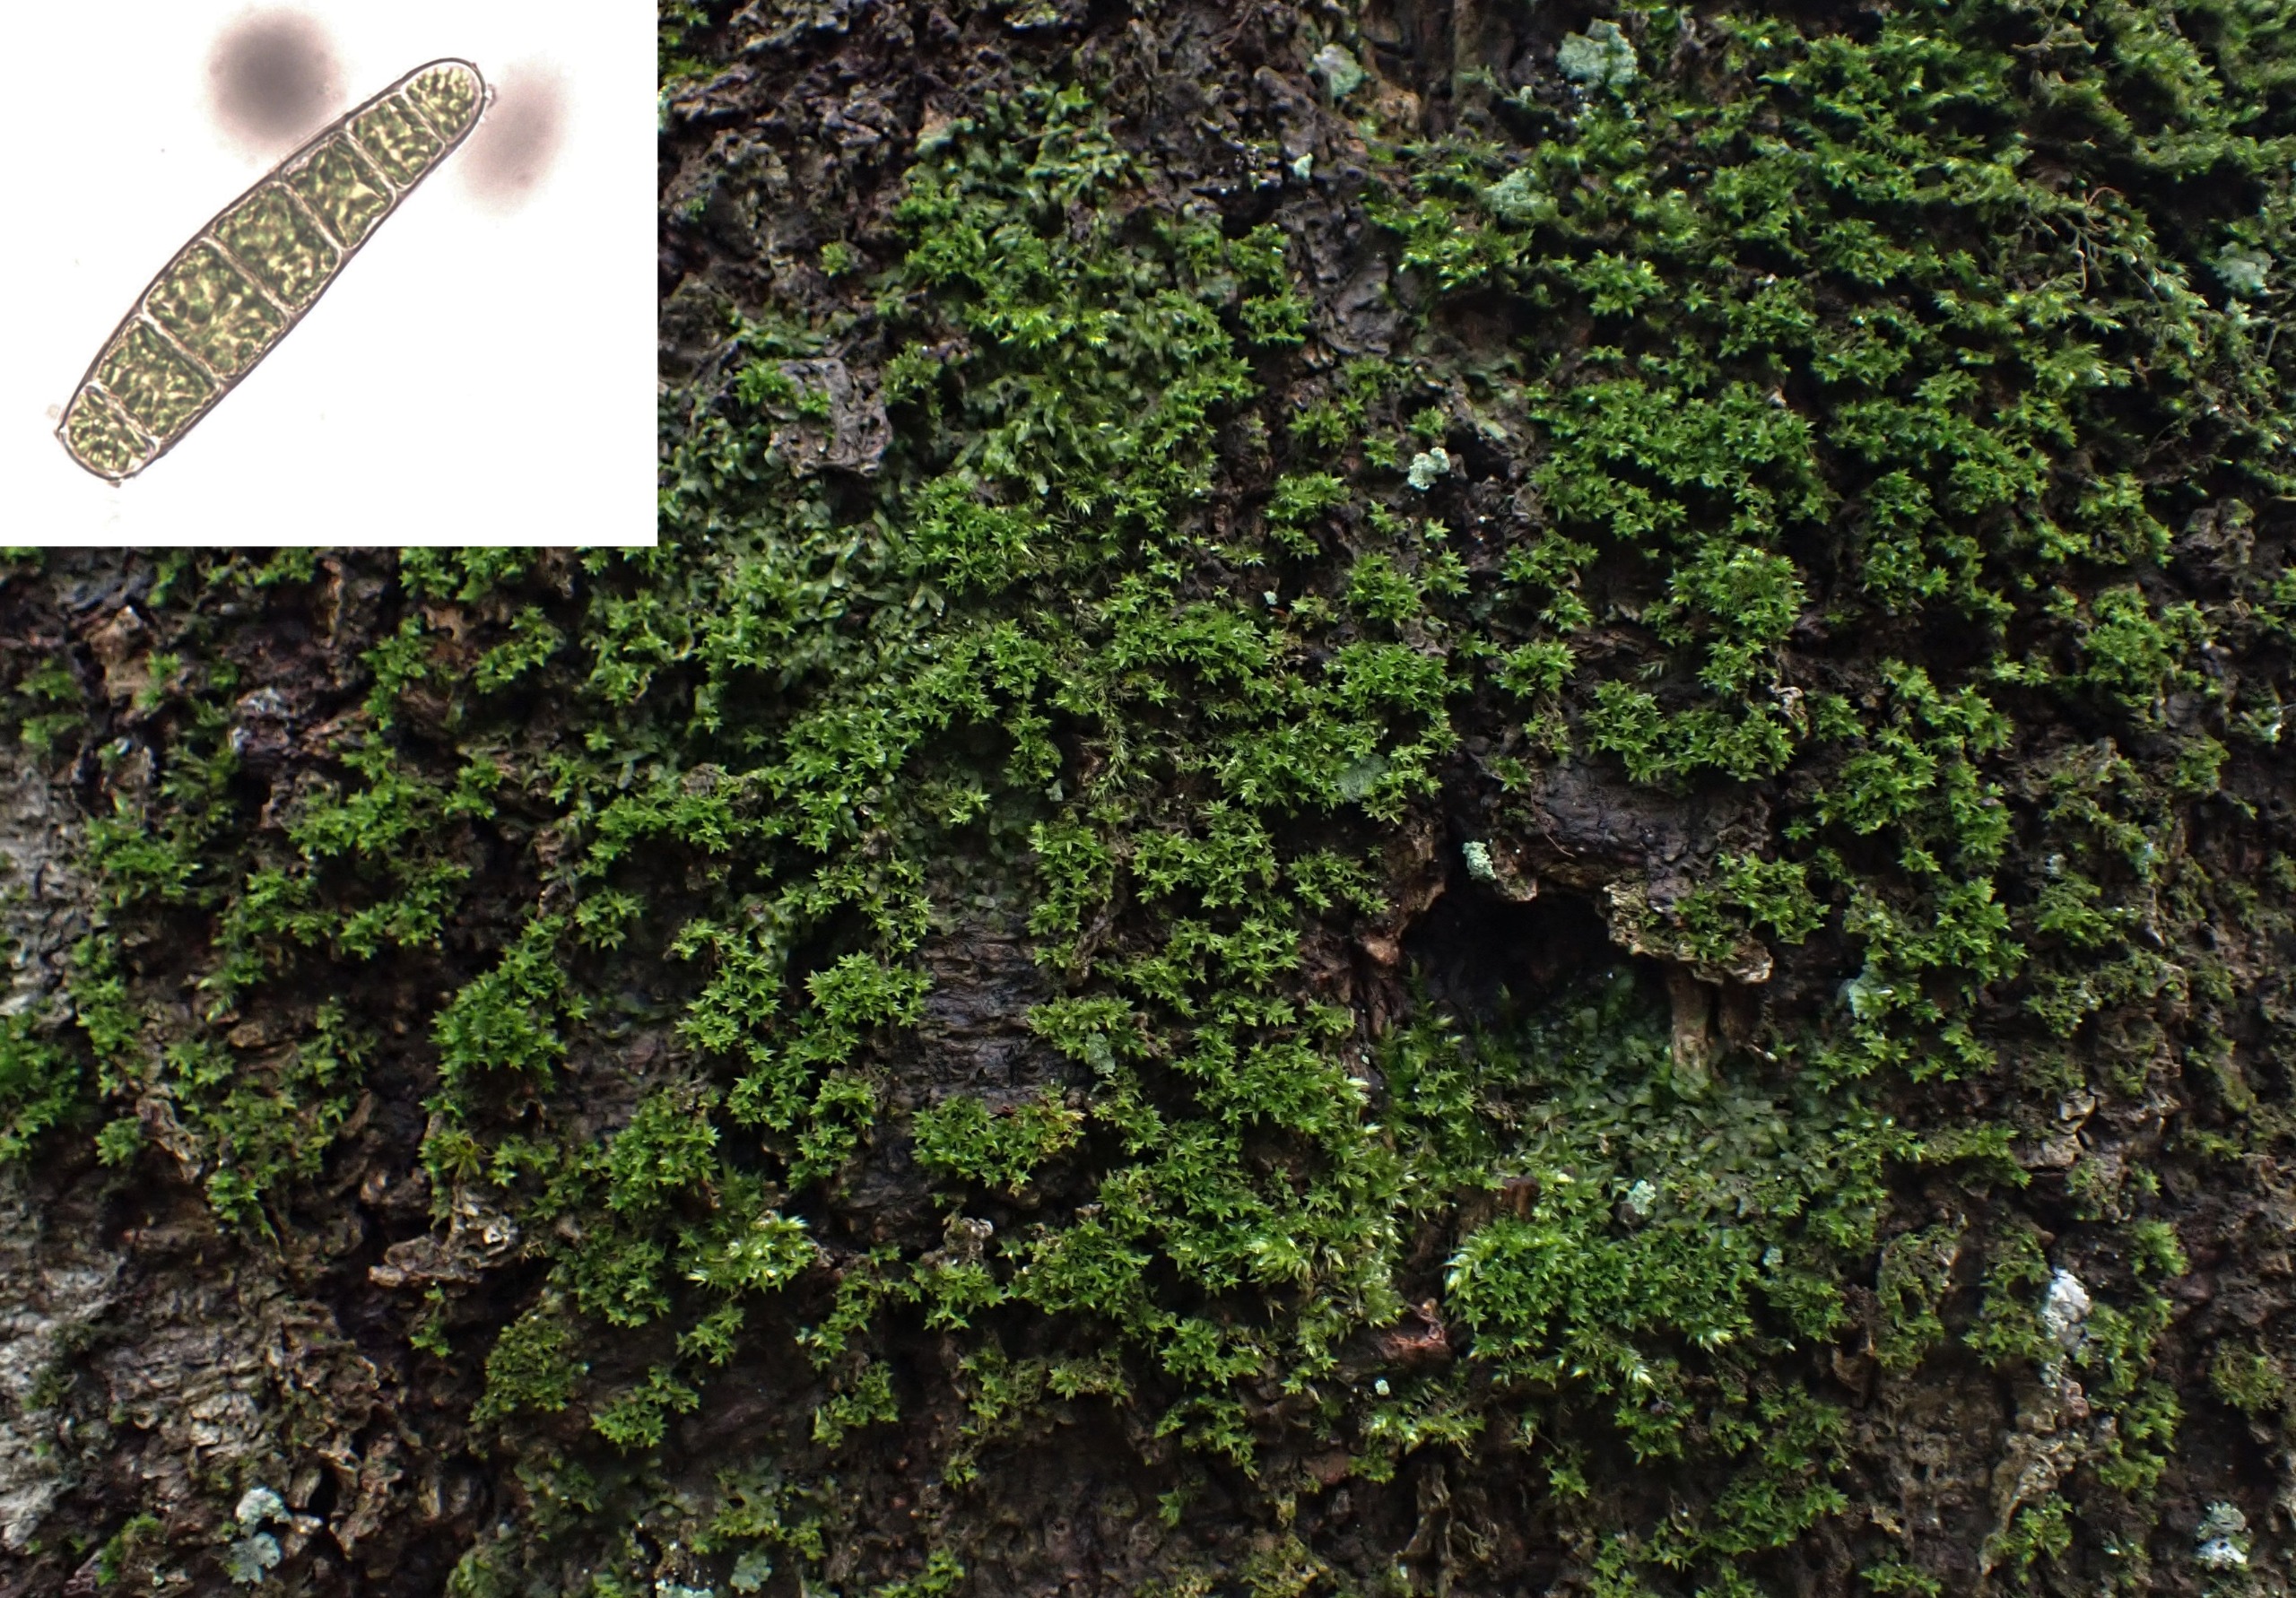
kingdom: Plantae
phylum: Bryophyta
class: Bryopsida
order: Orthotrichales
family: Orthotrichaceae
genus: Zygodon
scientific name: Zygodon conoideus
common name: Tand-køllemos
